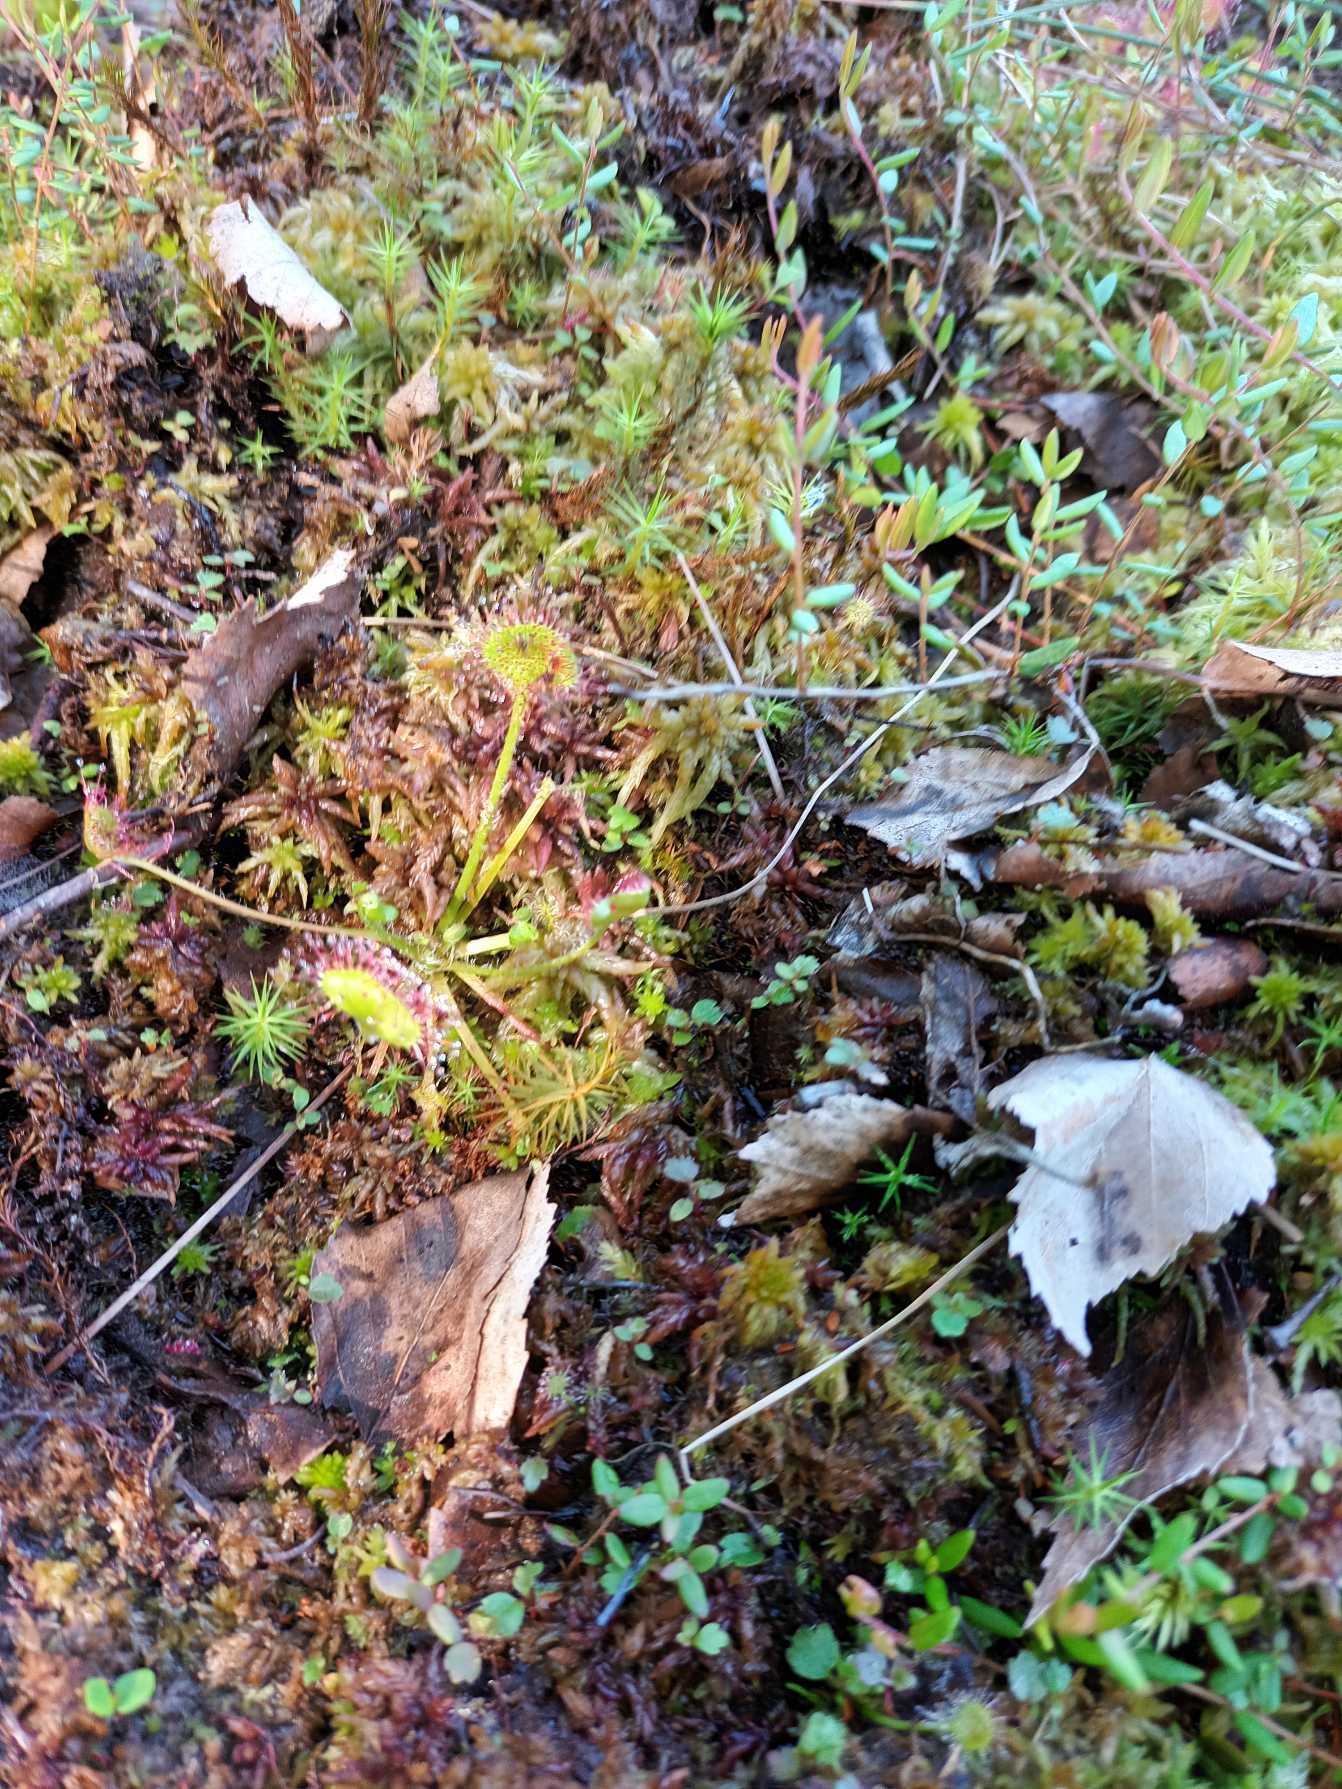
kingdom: Plantae
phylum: Tracheophyta
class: Magnoliopsida
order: Caryophyllales
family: Droseraceae
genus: Drosera
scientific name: Drosera rotundifolia
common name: Rundbladet soldug
